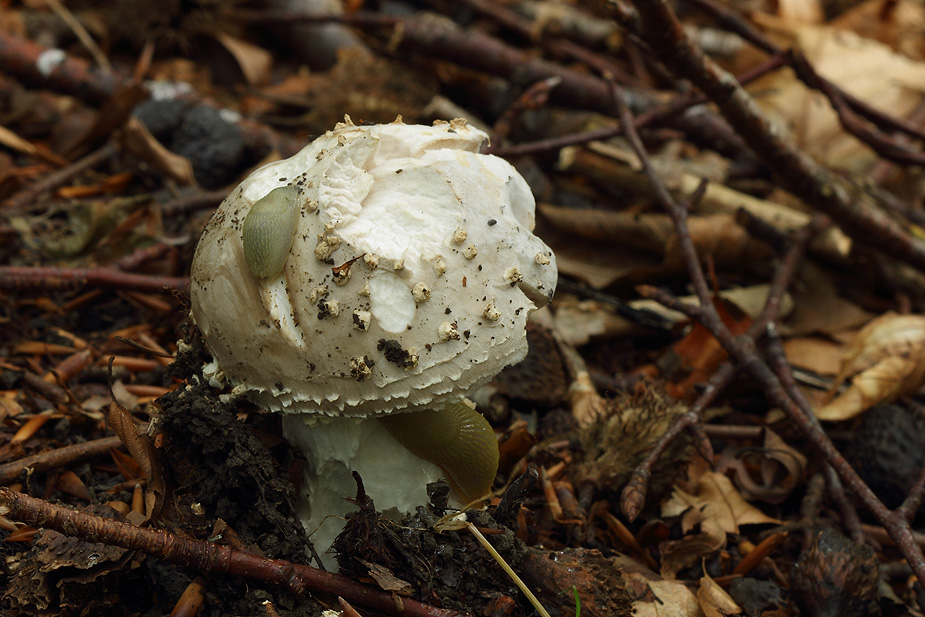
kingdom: Fungi
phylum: Basidiomycota
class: Agaricomycetes
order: Agaricales
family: Amanitaceae
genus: Aspidella
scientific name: Aspidella solitaria
